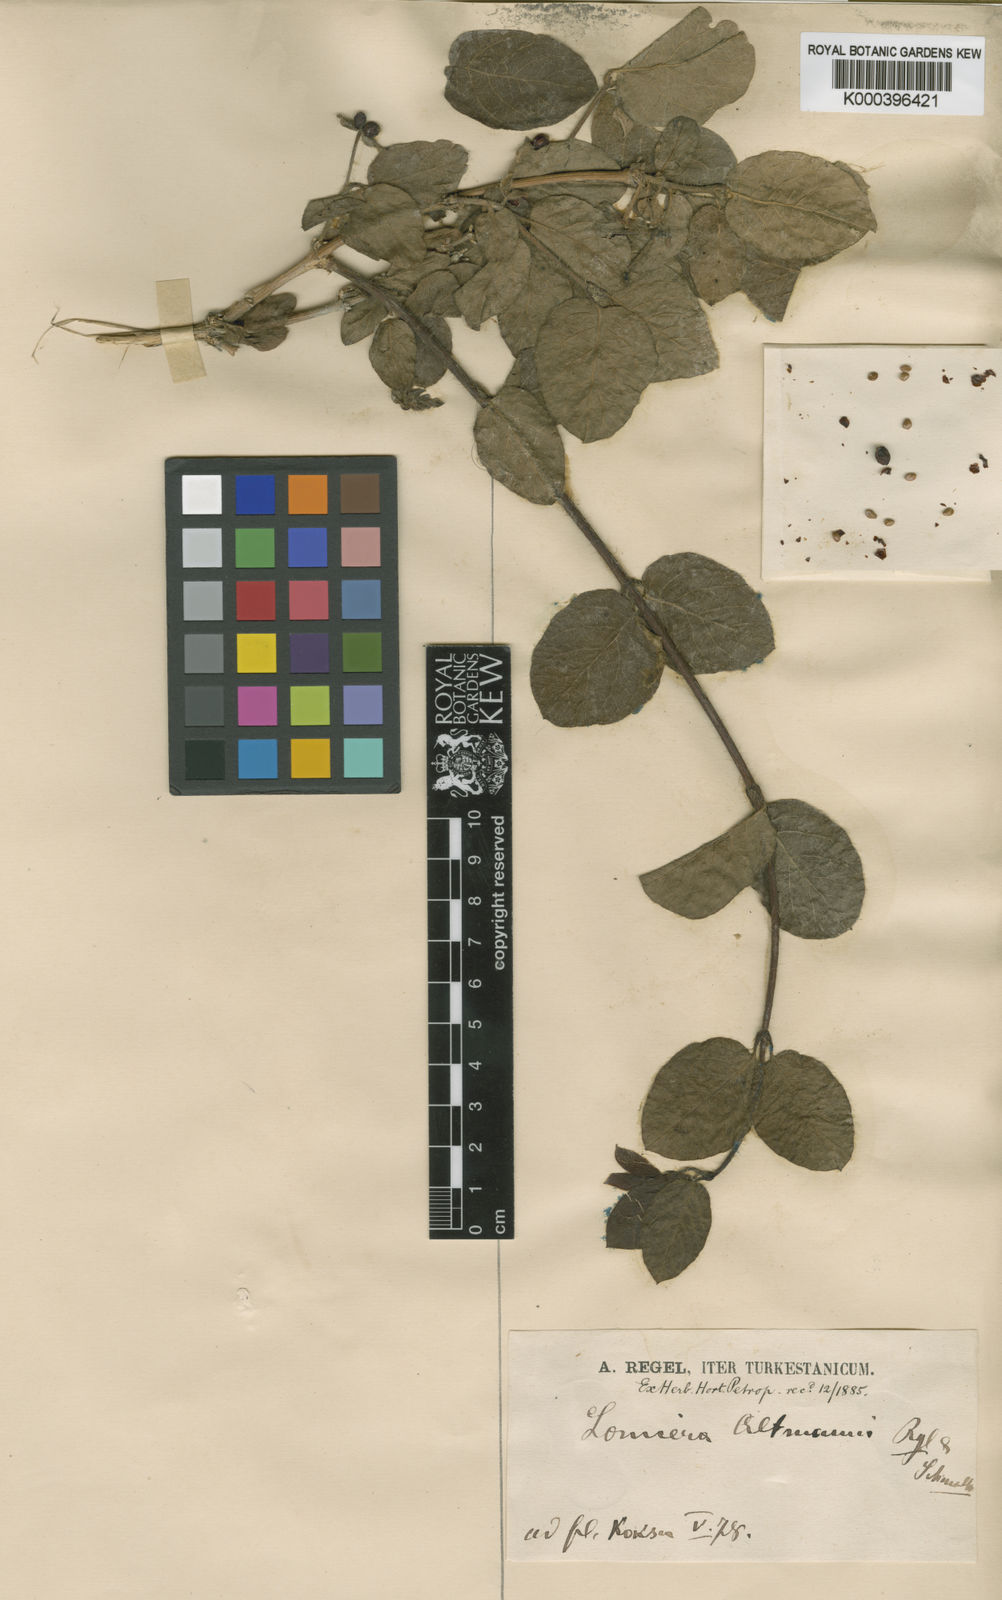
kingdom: Plantae
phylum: Tracheophyta
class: Magnoliopsida
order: Dipsacales
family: Caprifoliaceae
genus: Lonicera
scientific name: Lonicera altmannii
